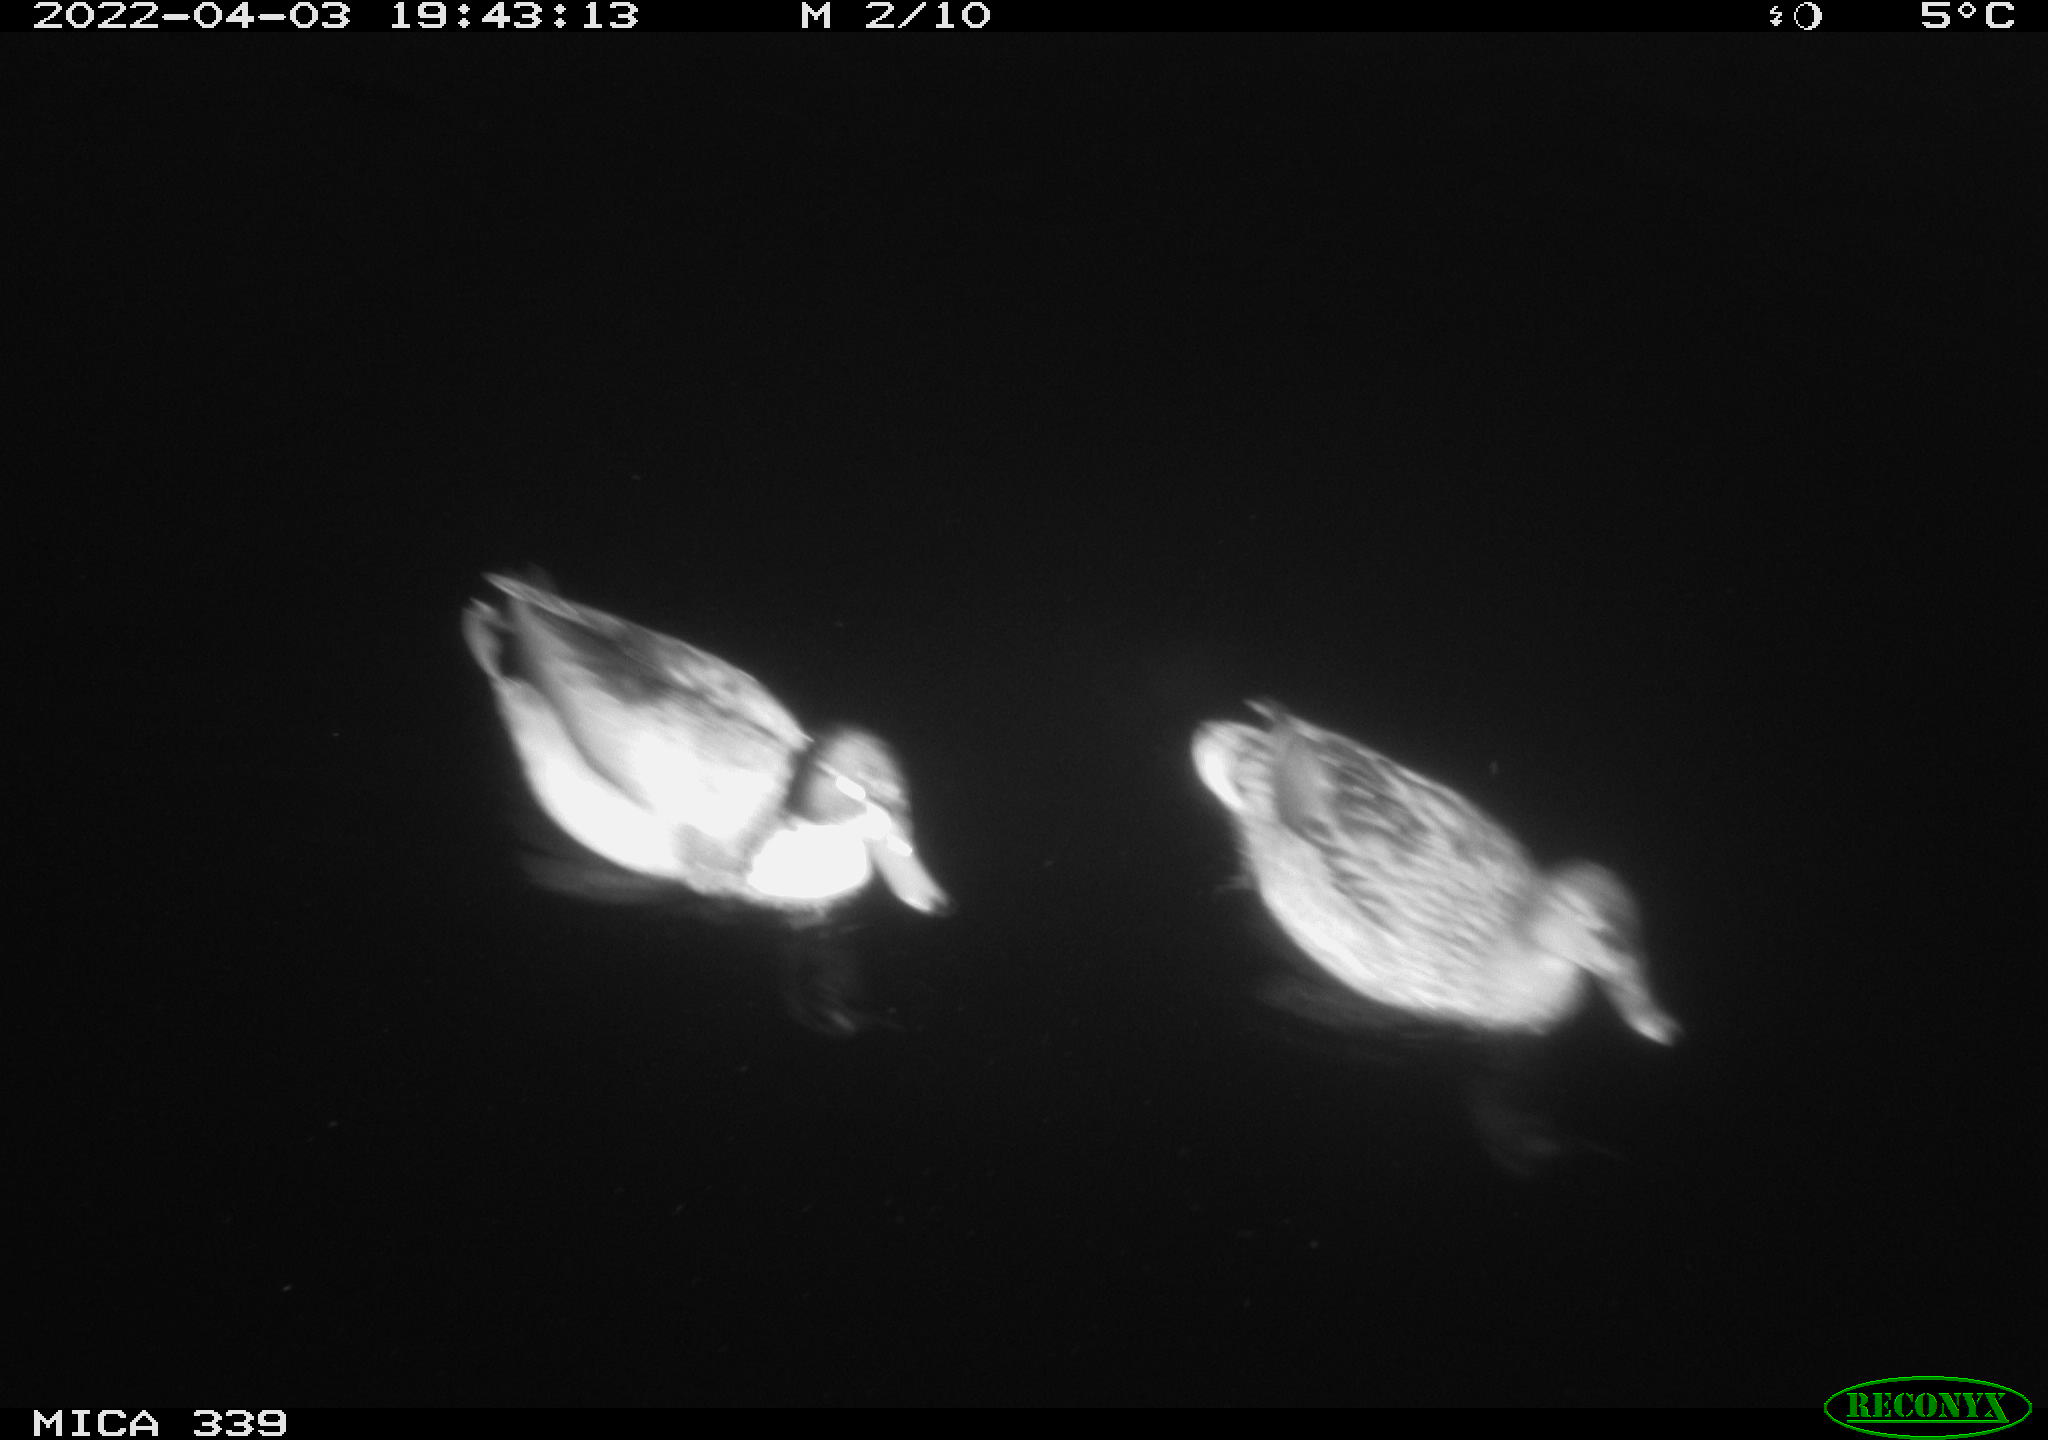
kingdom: Animalia
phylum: Chordata
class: Aves
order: Anseriformes
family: Anatidae
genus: Anas
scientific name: Anas platyrhynchos
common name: Mallard
